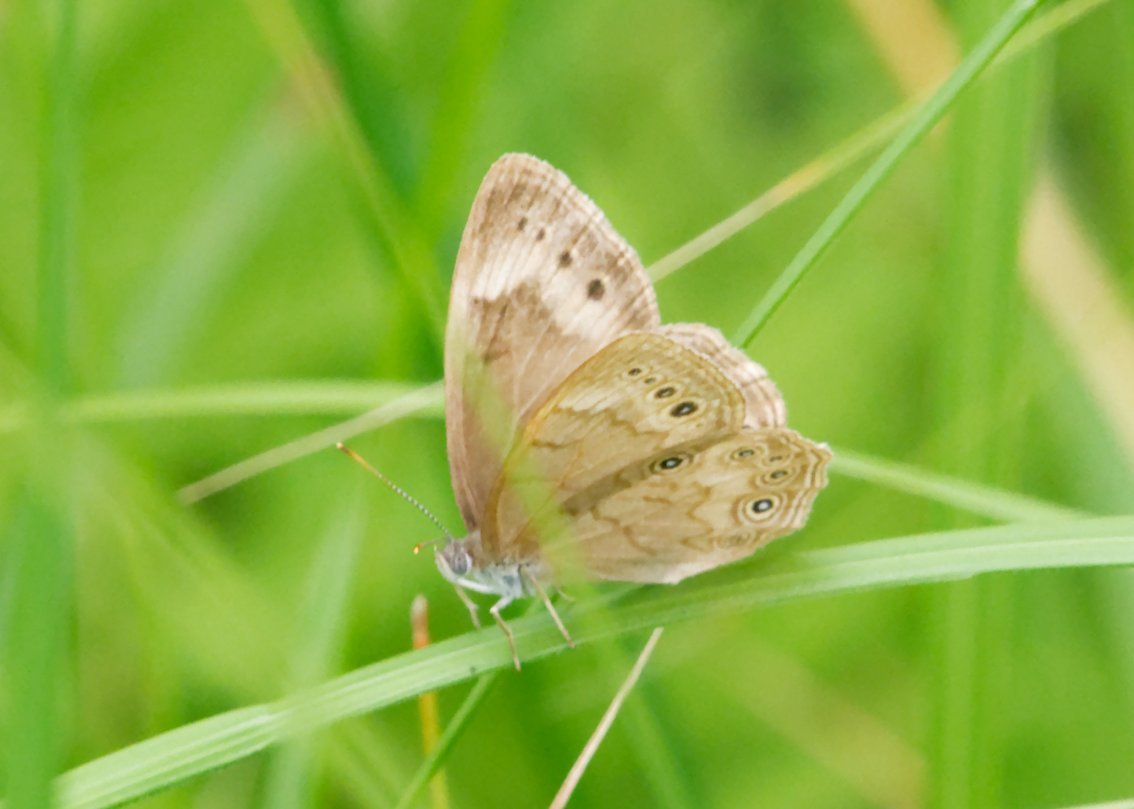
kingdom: Animalia
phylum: Arthropoda
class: Insecta
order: Lepidoptera
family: Nymphalidae
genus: Lethe
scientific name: Lethe eurydice
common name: Eyed Brown
